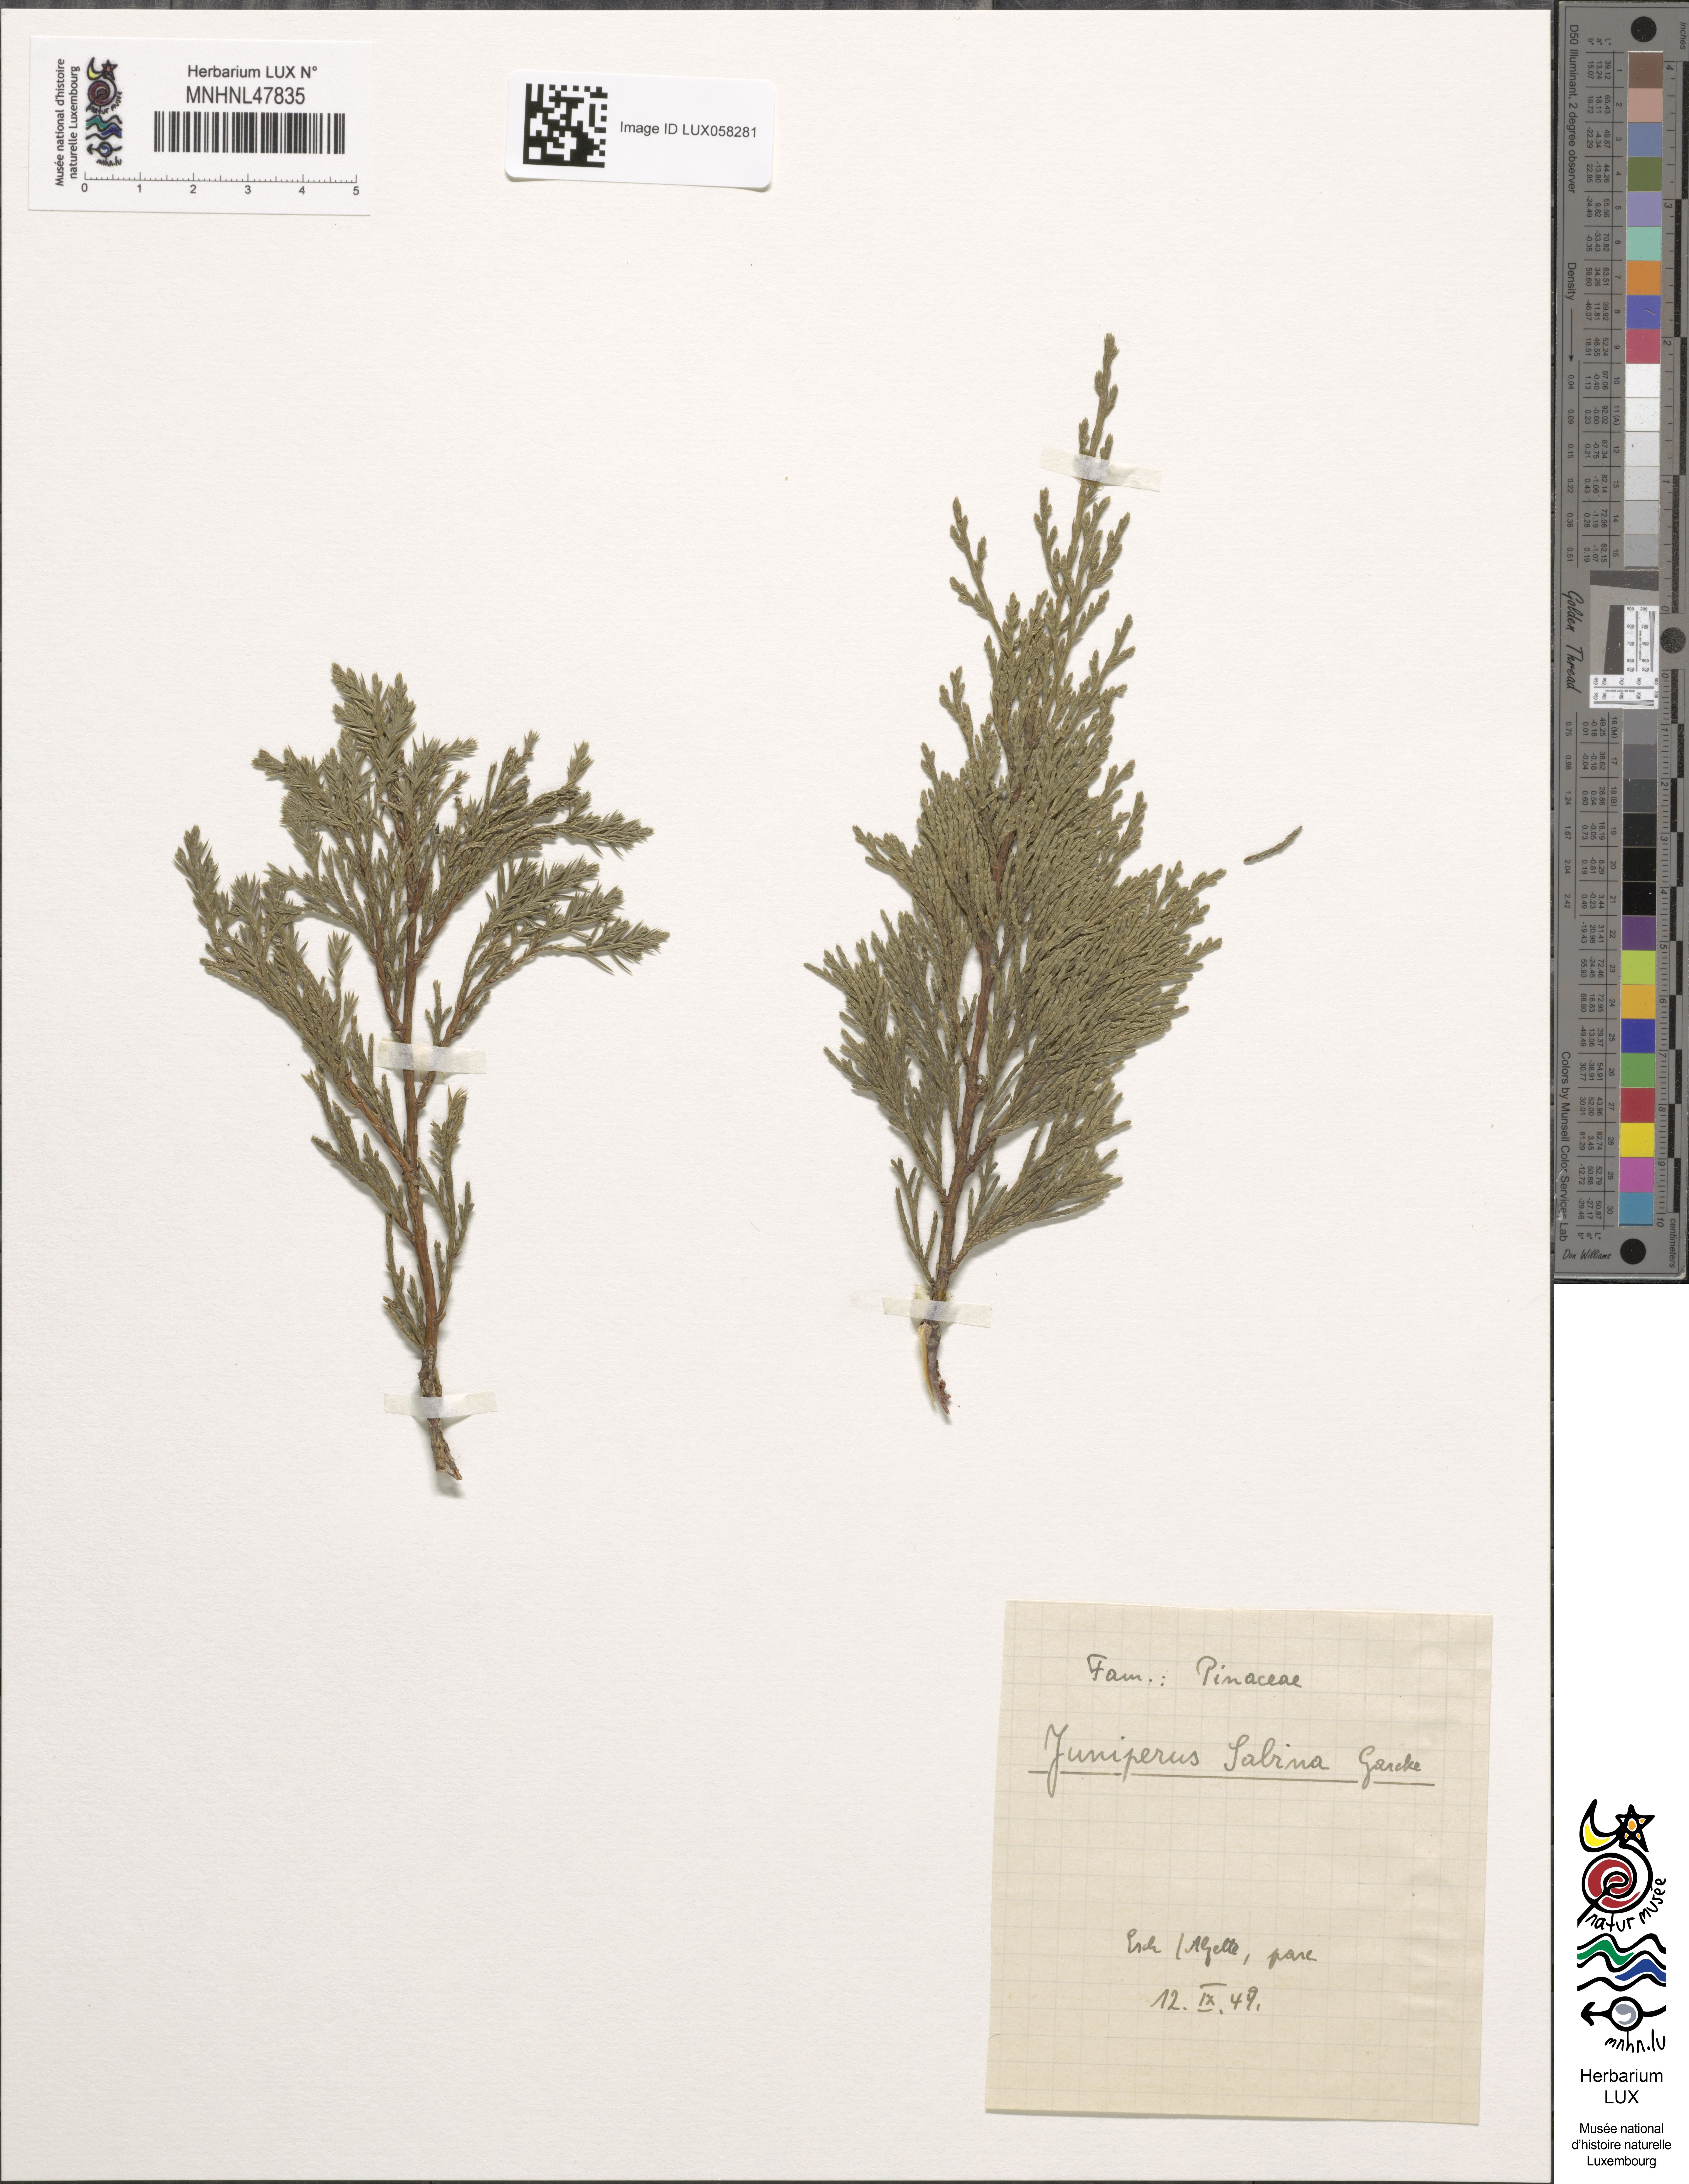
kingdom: Plantae
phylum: Tracheophyta
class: Pinopsida
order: Pinales
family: Cupressaceae
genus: Juniperus
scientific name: Juniperus sabina
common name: Savin
